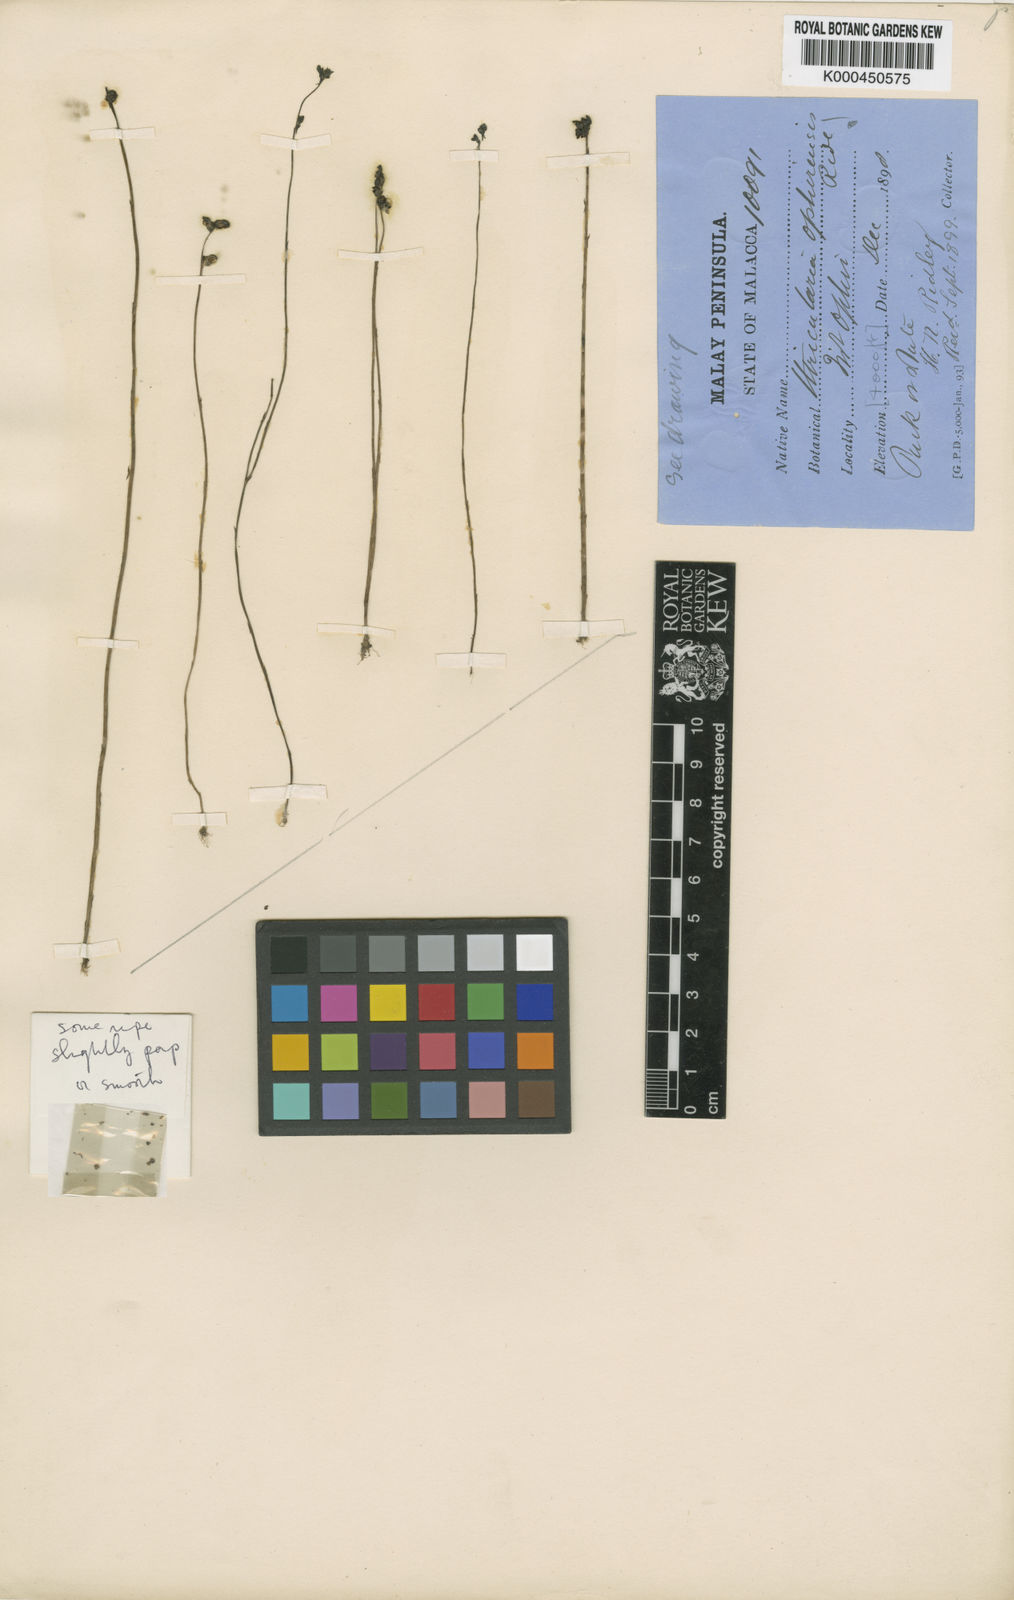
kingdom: Plantae
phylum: Tracheophyta
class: Magnoliopsida
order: Lamiales
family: Lentibulariaceae
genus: Utricularia
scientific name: Utricularia caerulea
